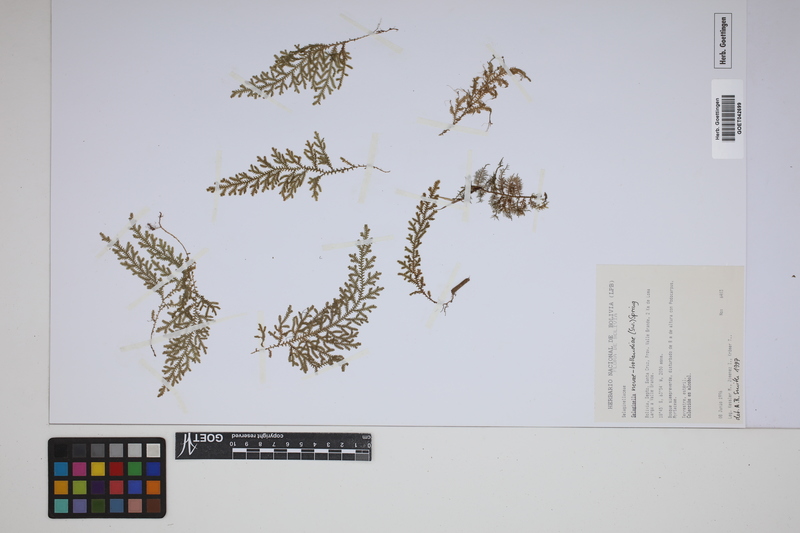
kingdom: Plantae
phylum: Tracheophyta
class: Lycopodiopsida
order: Selaginellales
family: Selaginellaceae
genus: Selaginella
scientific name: Selaginella novae-hollandiae
